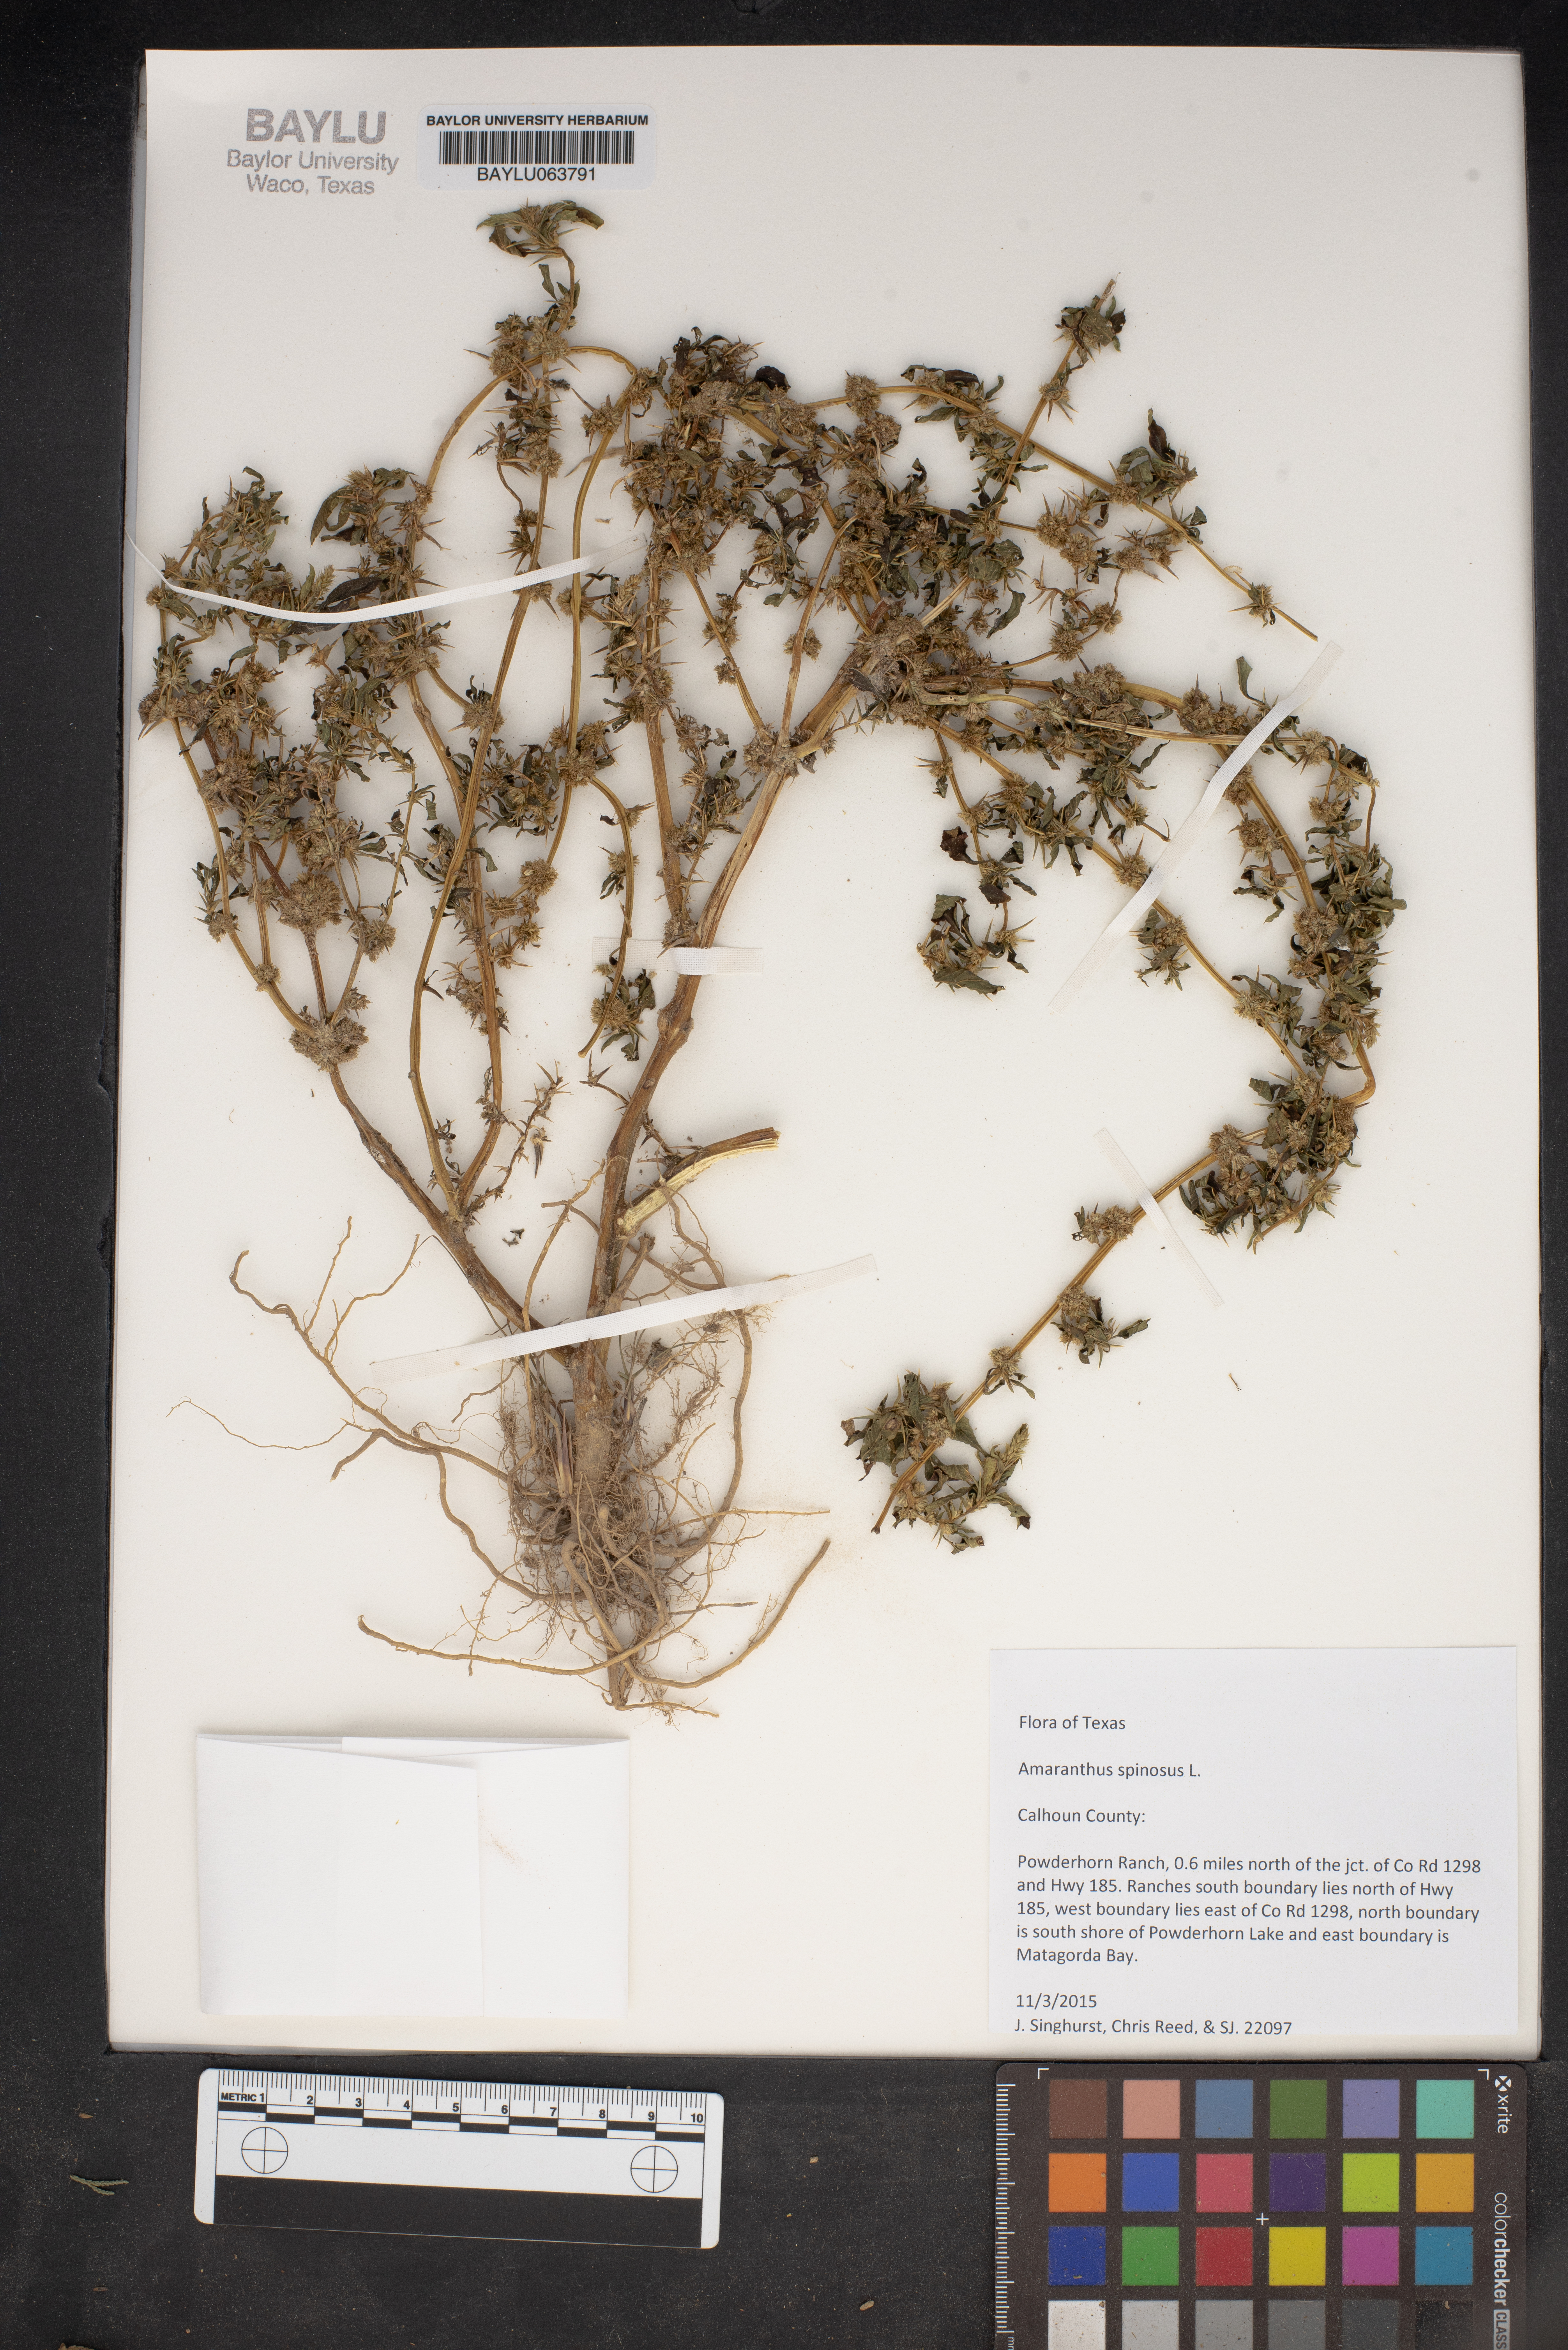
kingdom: Plantae
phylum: Tracheophyta
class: Magnoliopsida
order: Caryophyllales
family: Amaranthaceae
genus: Amaranthus
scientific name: Amaranthus spinosus
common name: Spiny amaranth
